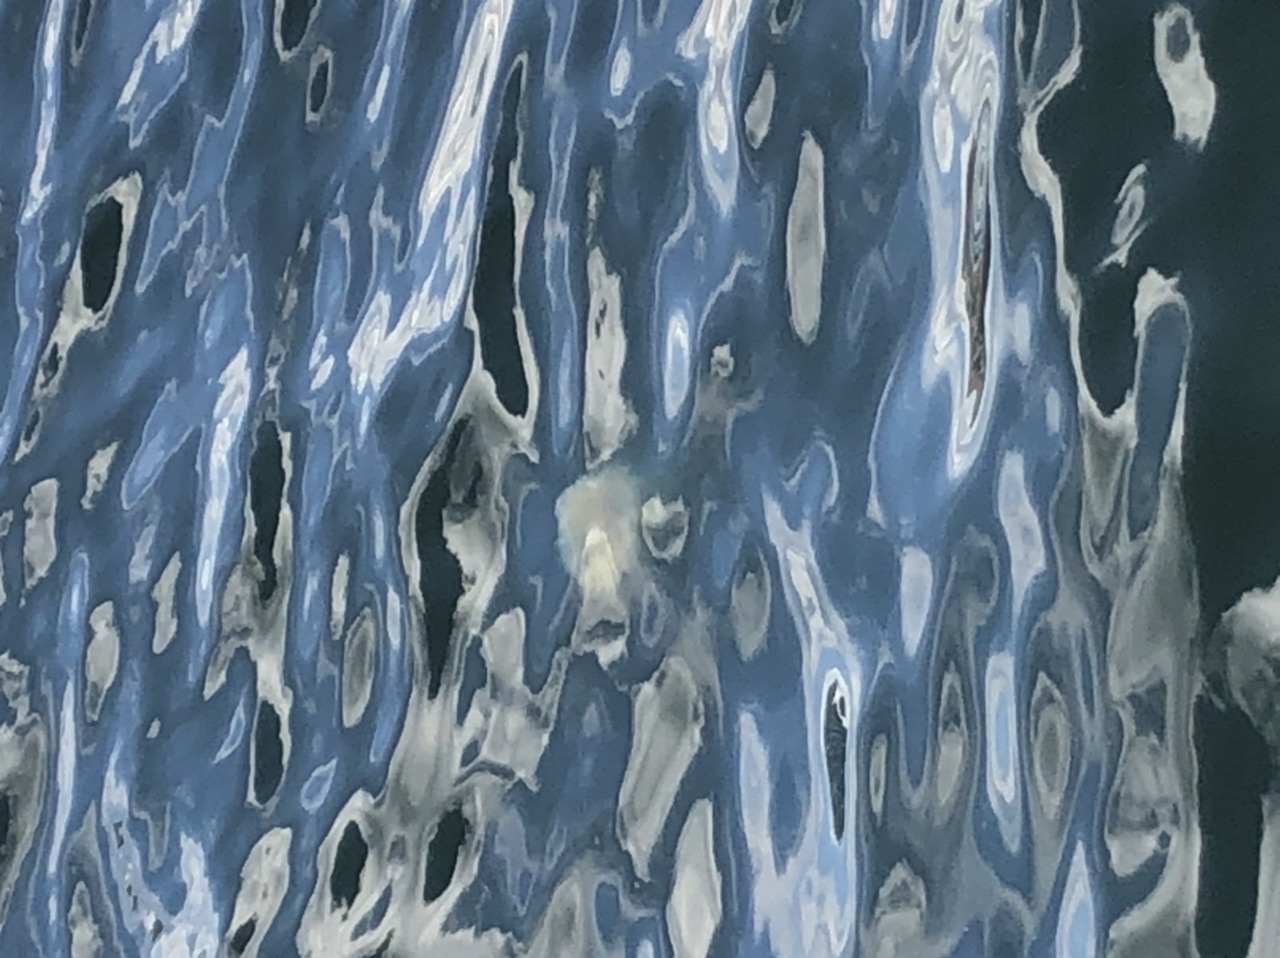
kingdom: Animalia
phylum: Cnidaria
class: Scyphozoa
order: Semaeostomeae
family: Cyaneidae
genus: Cyanea
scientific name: Cyanea nozakii
